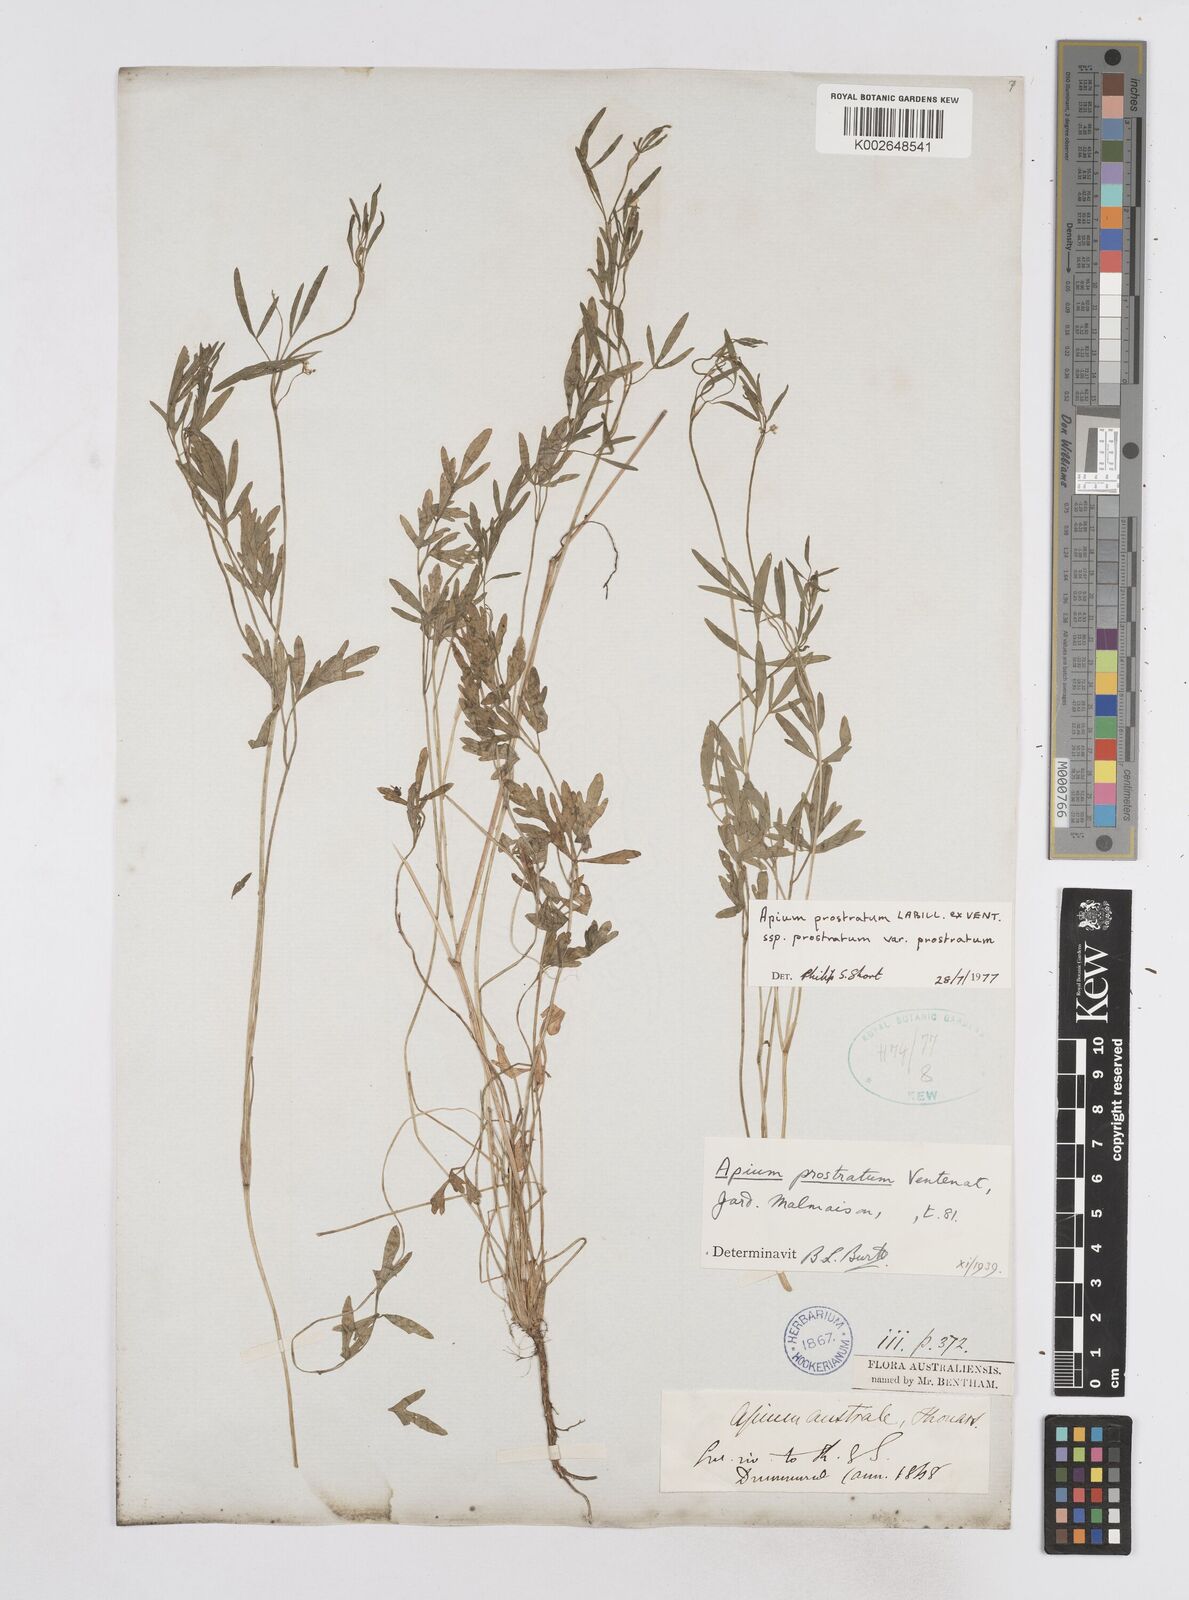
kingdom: Plantae
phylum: Tracheophyta
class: Magnoliopsida
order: Apiales
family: Apiaceae
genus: Apium
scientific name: Apium prostratum
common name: Prostrate marshwort
